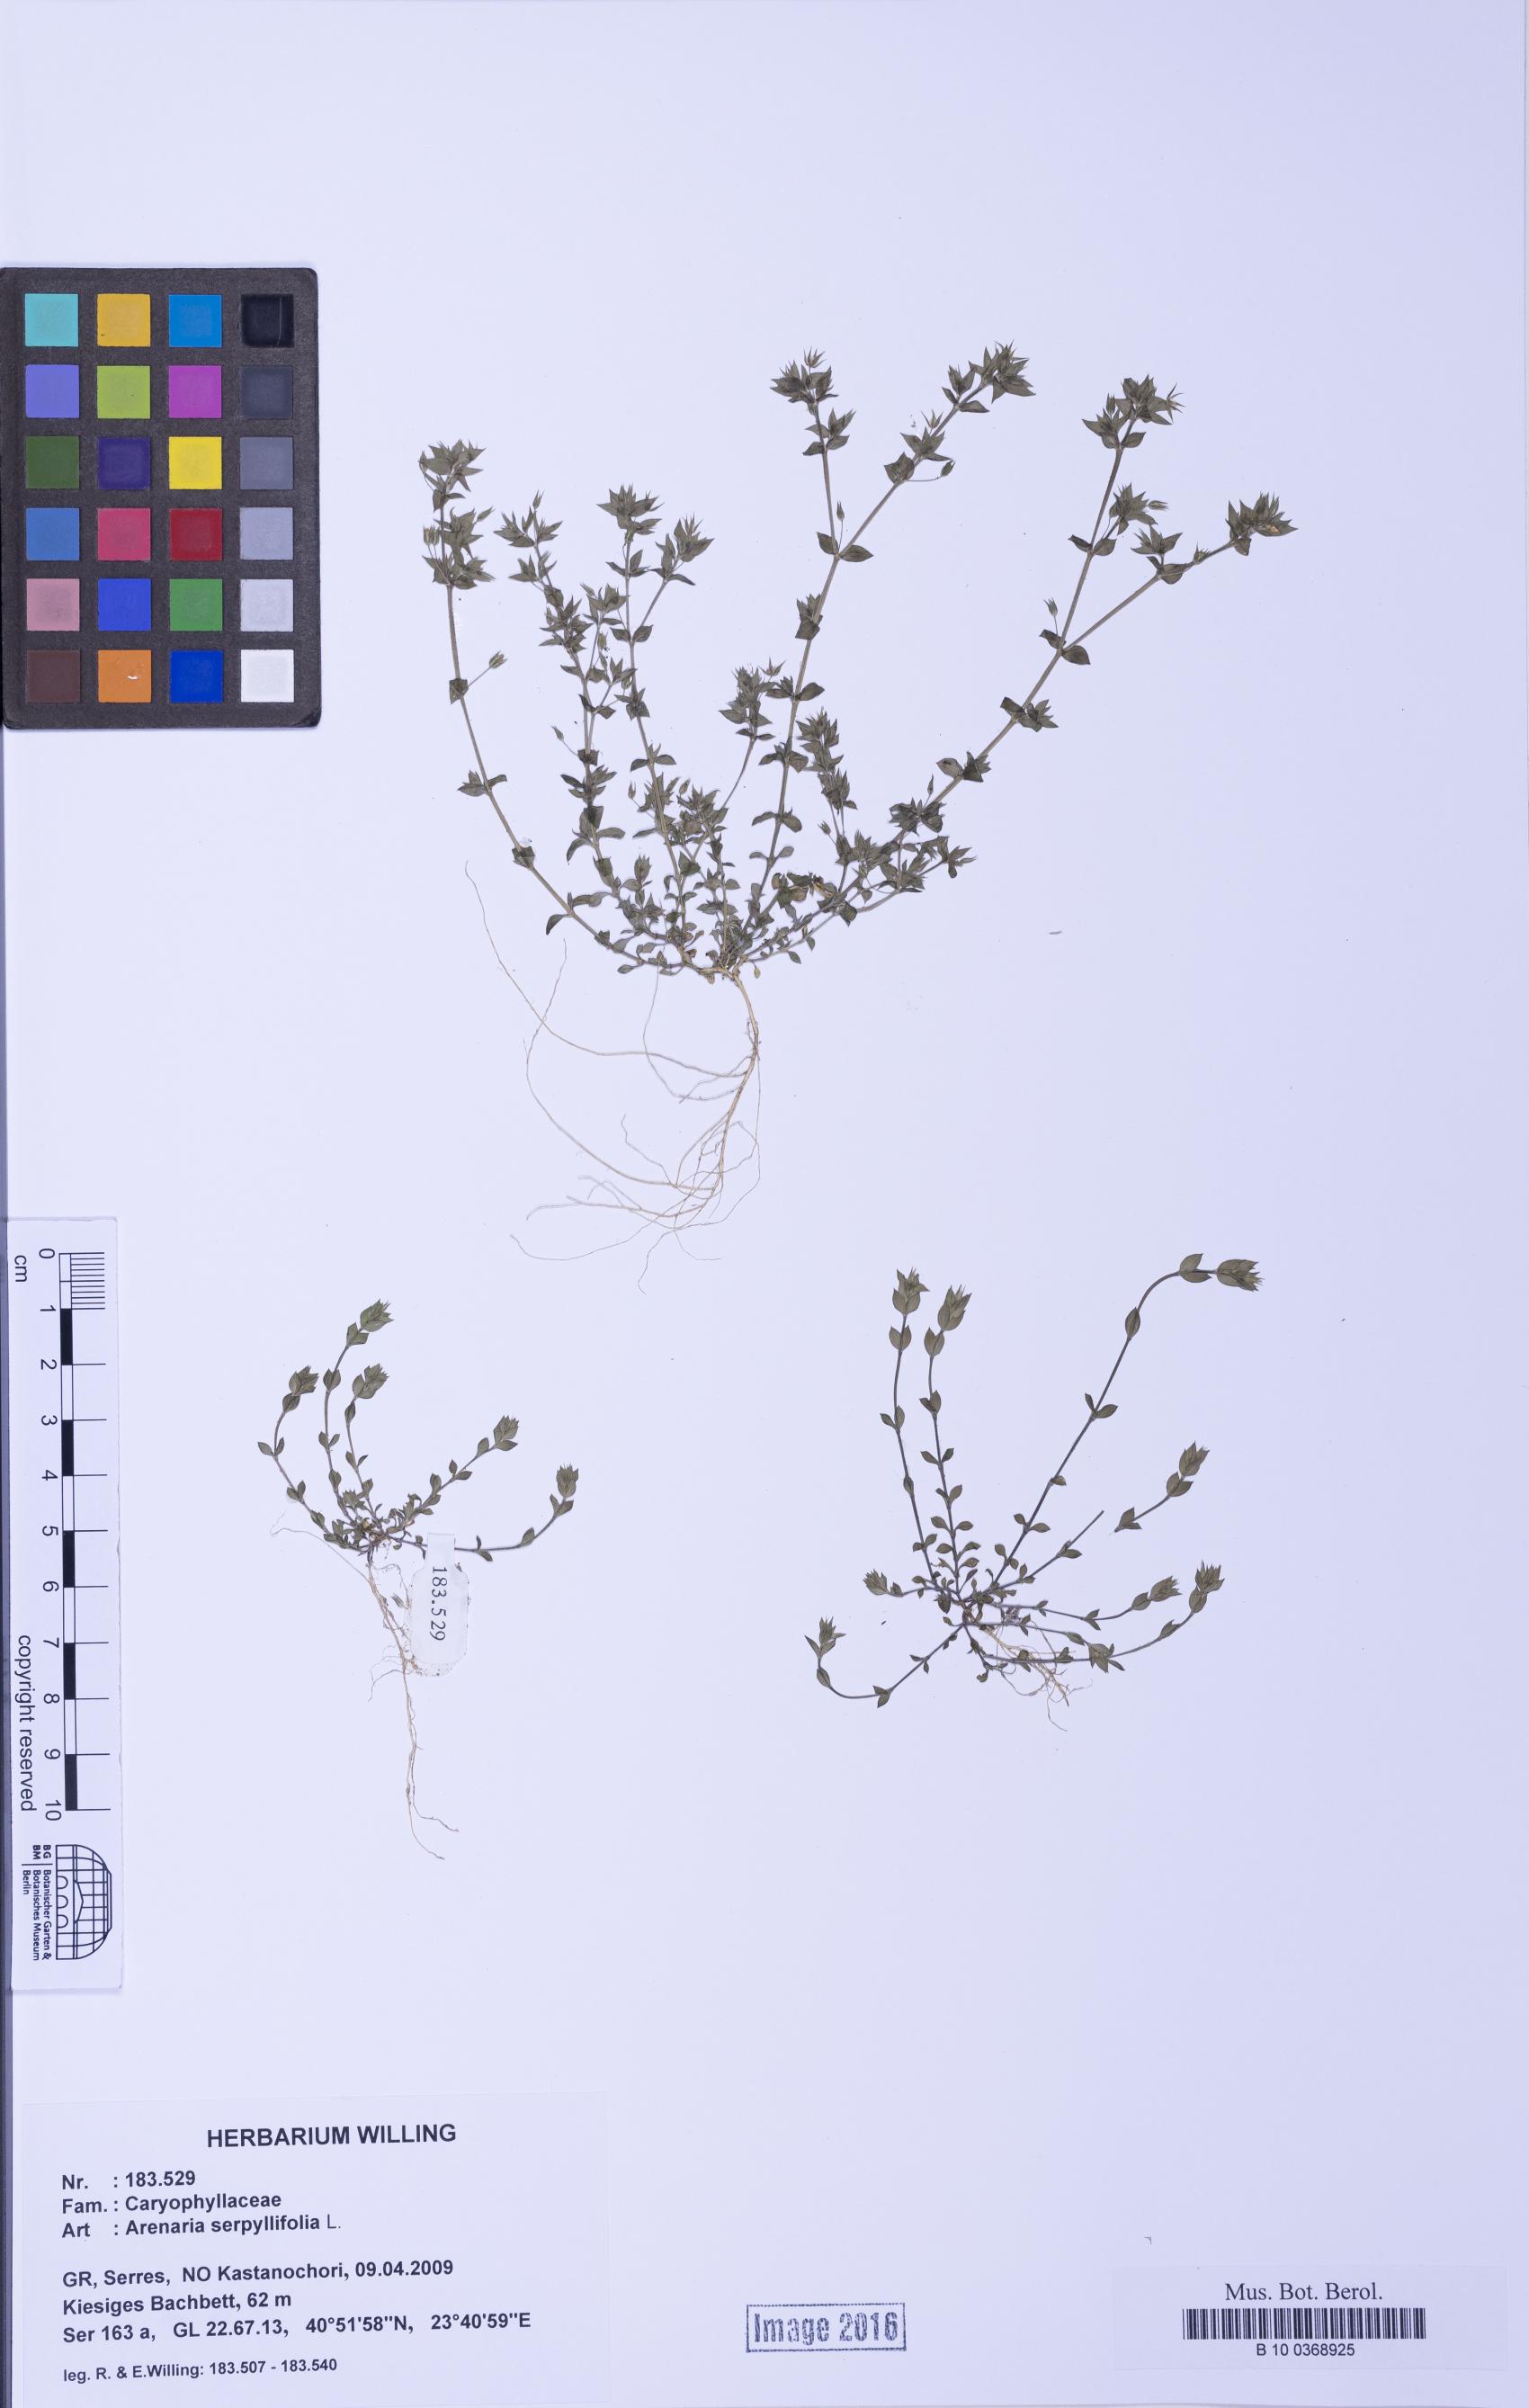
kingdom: Plantae
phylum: Tracheophyta
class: Magnoliopsida
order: Caryophyllales
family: Caryophyllaceae
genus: Arenaria
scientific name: Arenaria serpyllifolia
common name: Thyme-leaved sandwort
